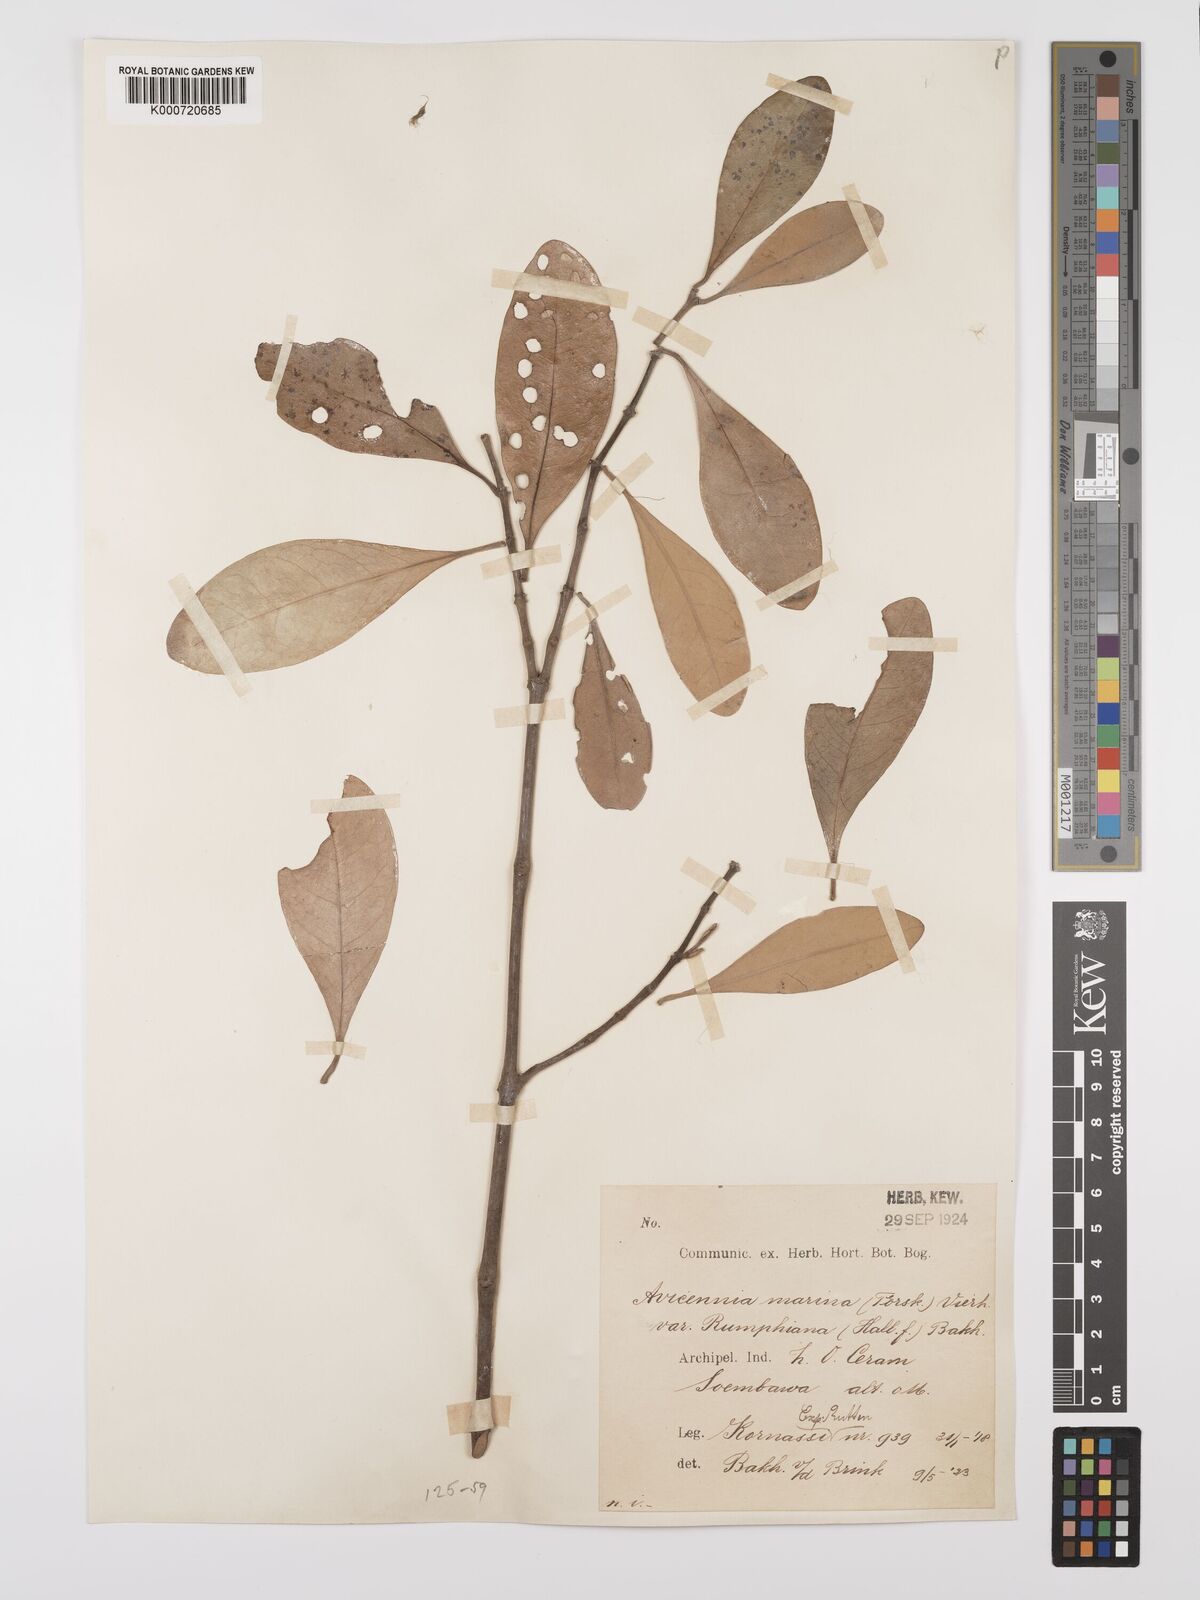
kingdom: Plantae
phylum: Tracheophyta
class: Magnoliopsida
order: Lamiales
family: Acanthaceae
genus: Avicennia
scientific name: Avicennia marina
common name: Gray mangrove
